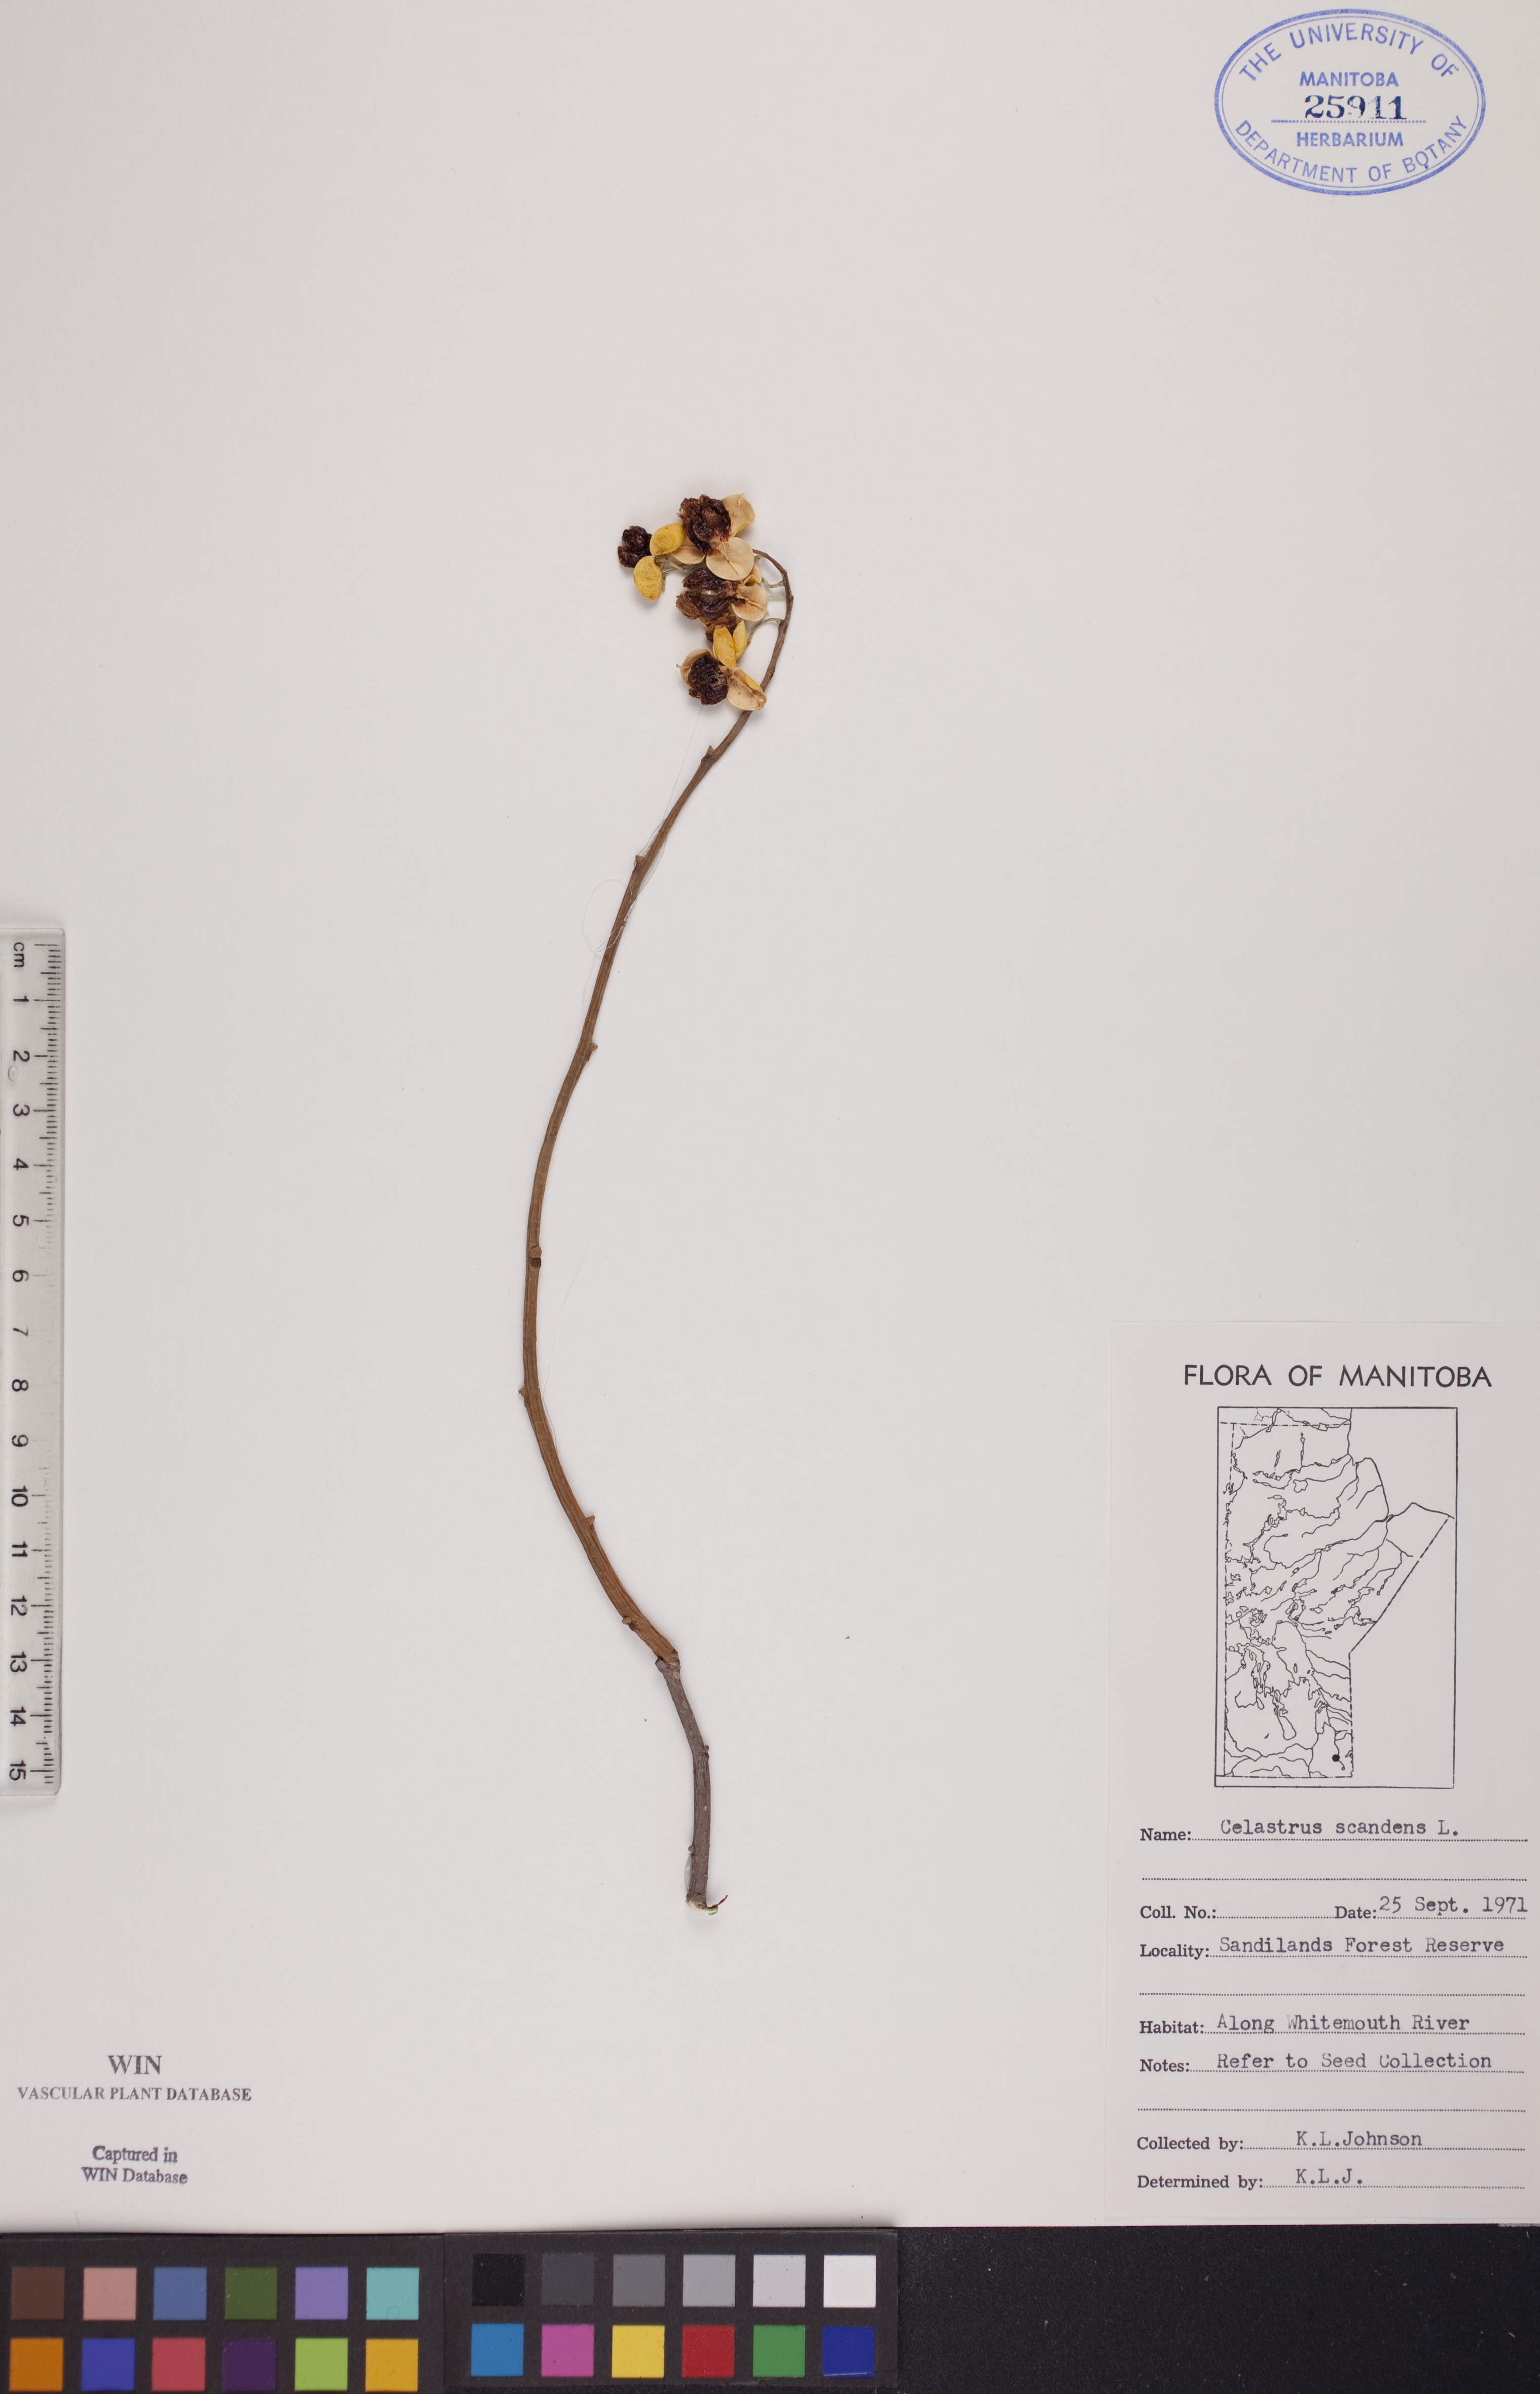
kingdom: Plantae
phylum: Tracheophyta
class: Magnoliopsida
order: Celastrales
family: Celastraceae
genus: Celastrus
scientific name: Celastrus scandens
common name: American bittersweet
